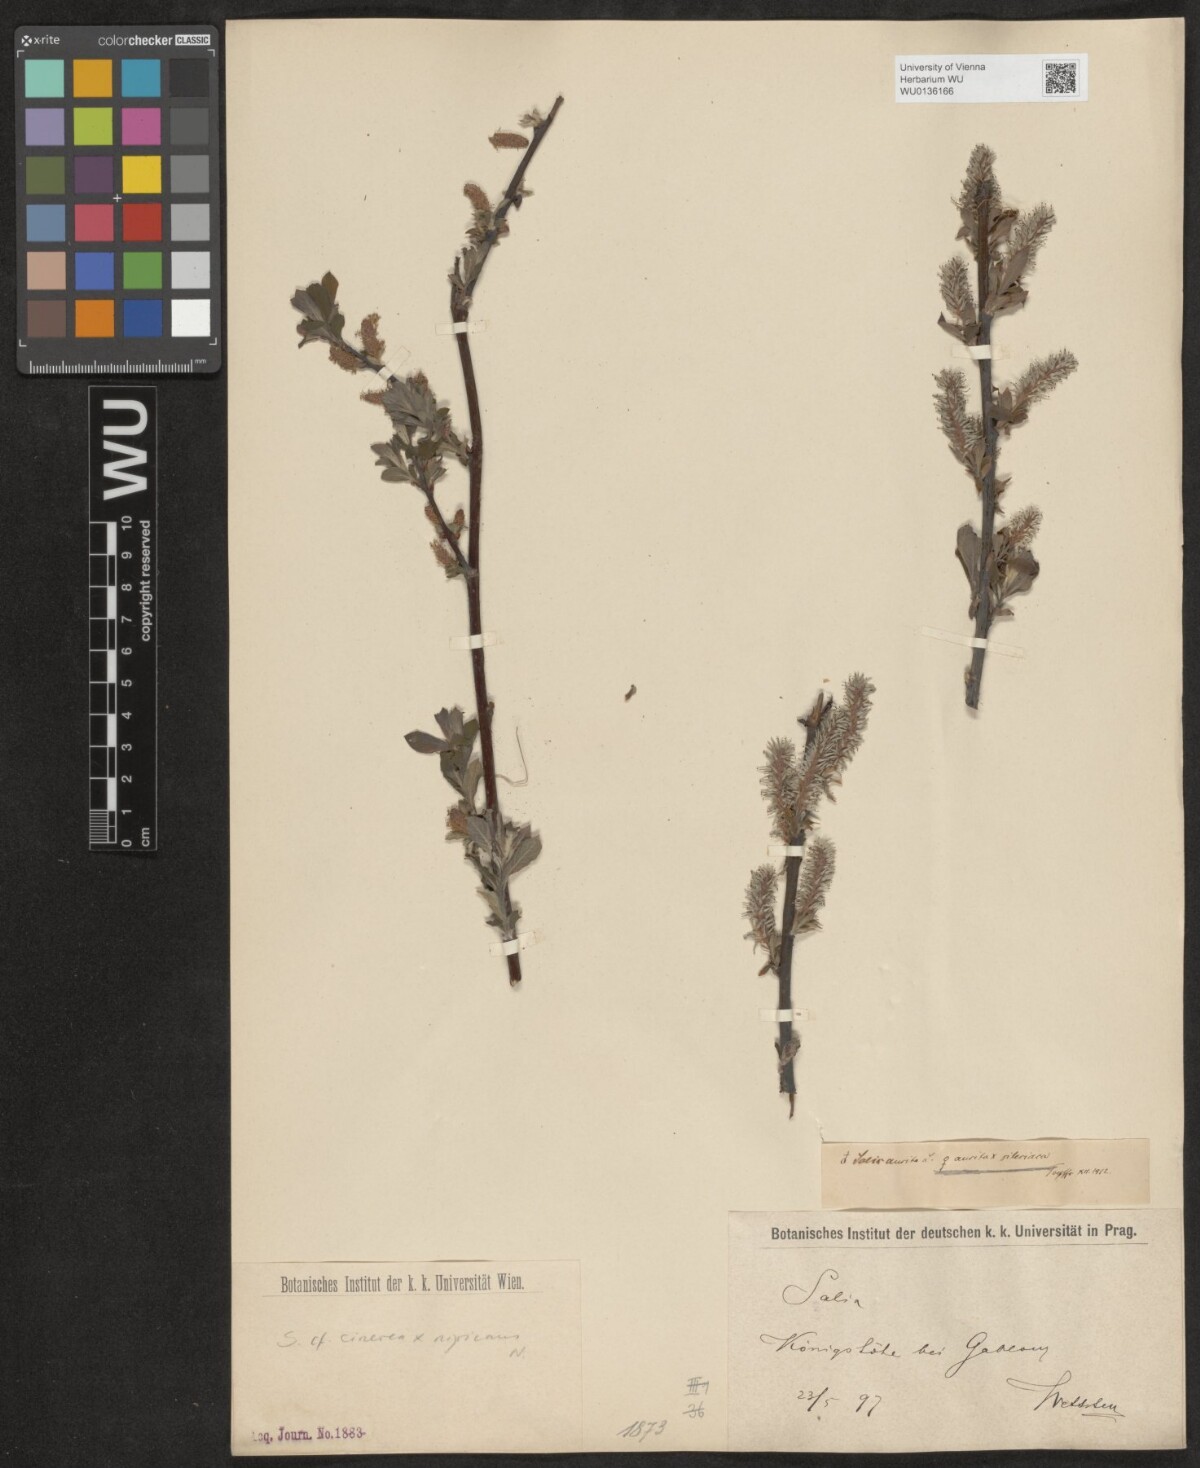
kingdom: Plantae
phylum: Tracheophyta
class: Magnoliopsida
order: Malpighiales
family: Salicaceae
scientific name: Salicaceae
